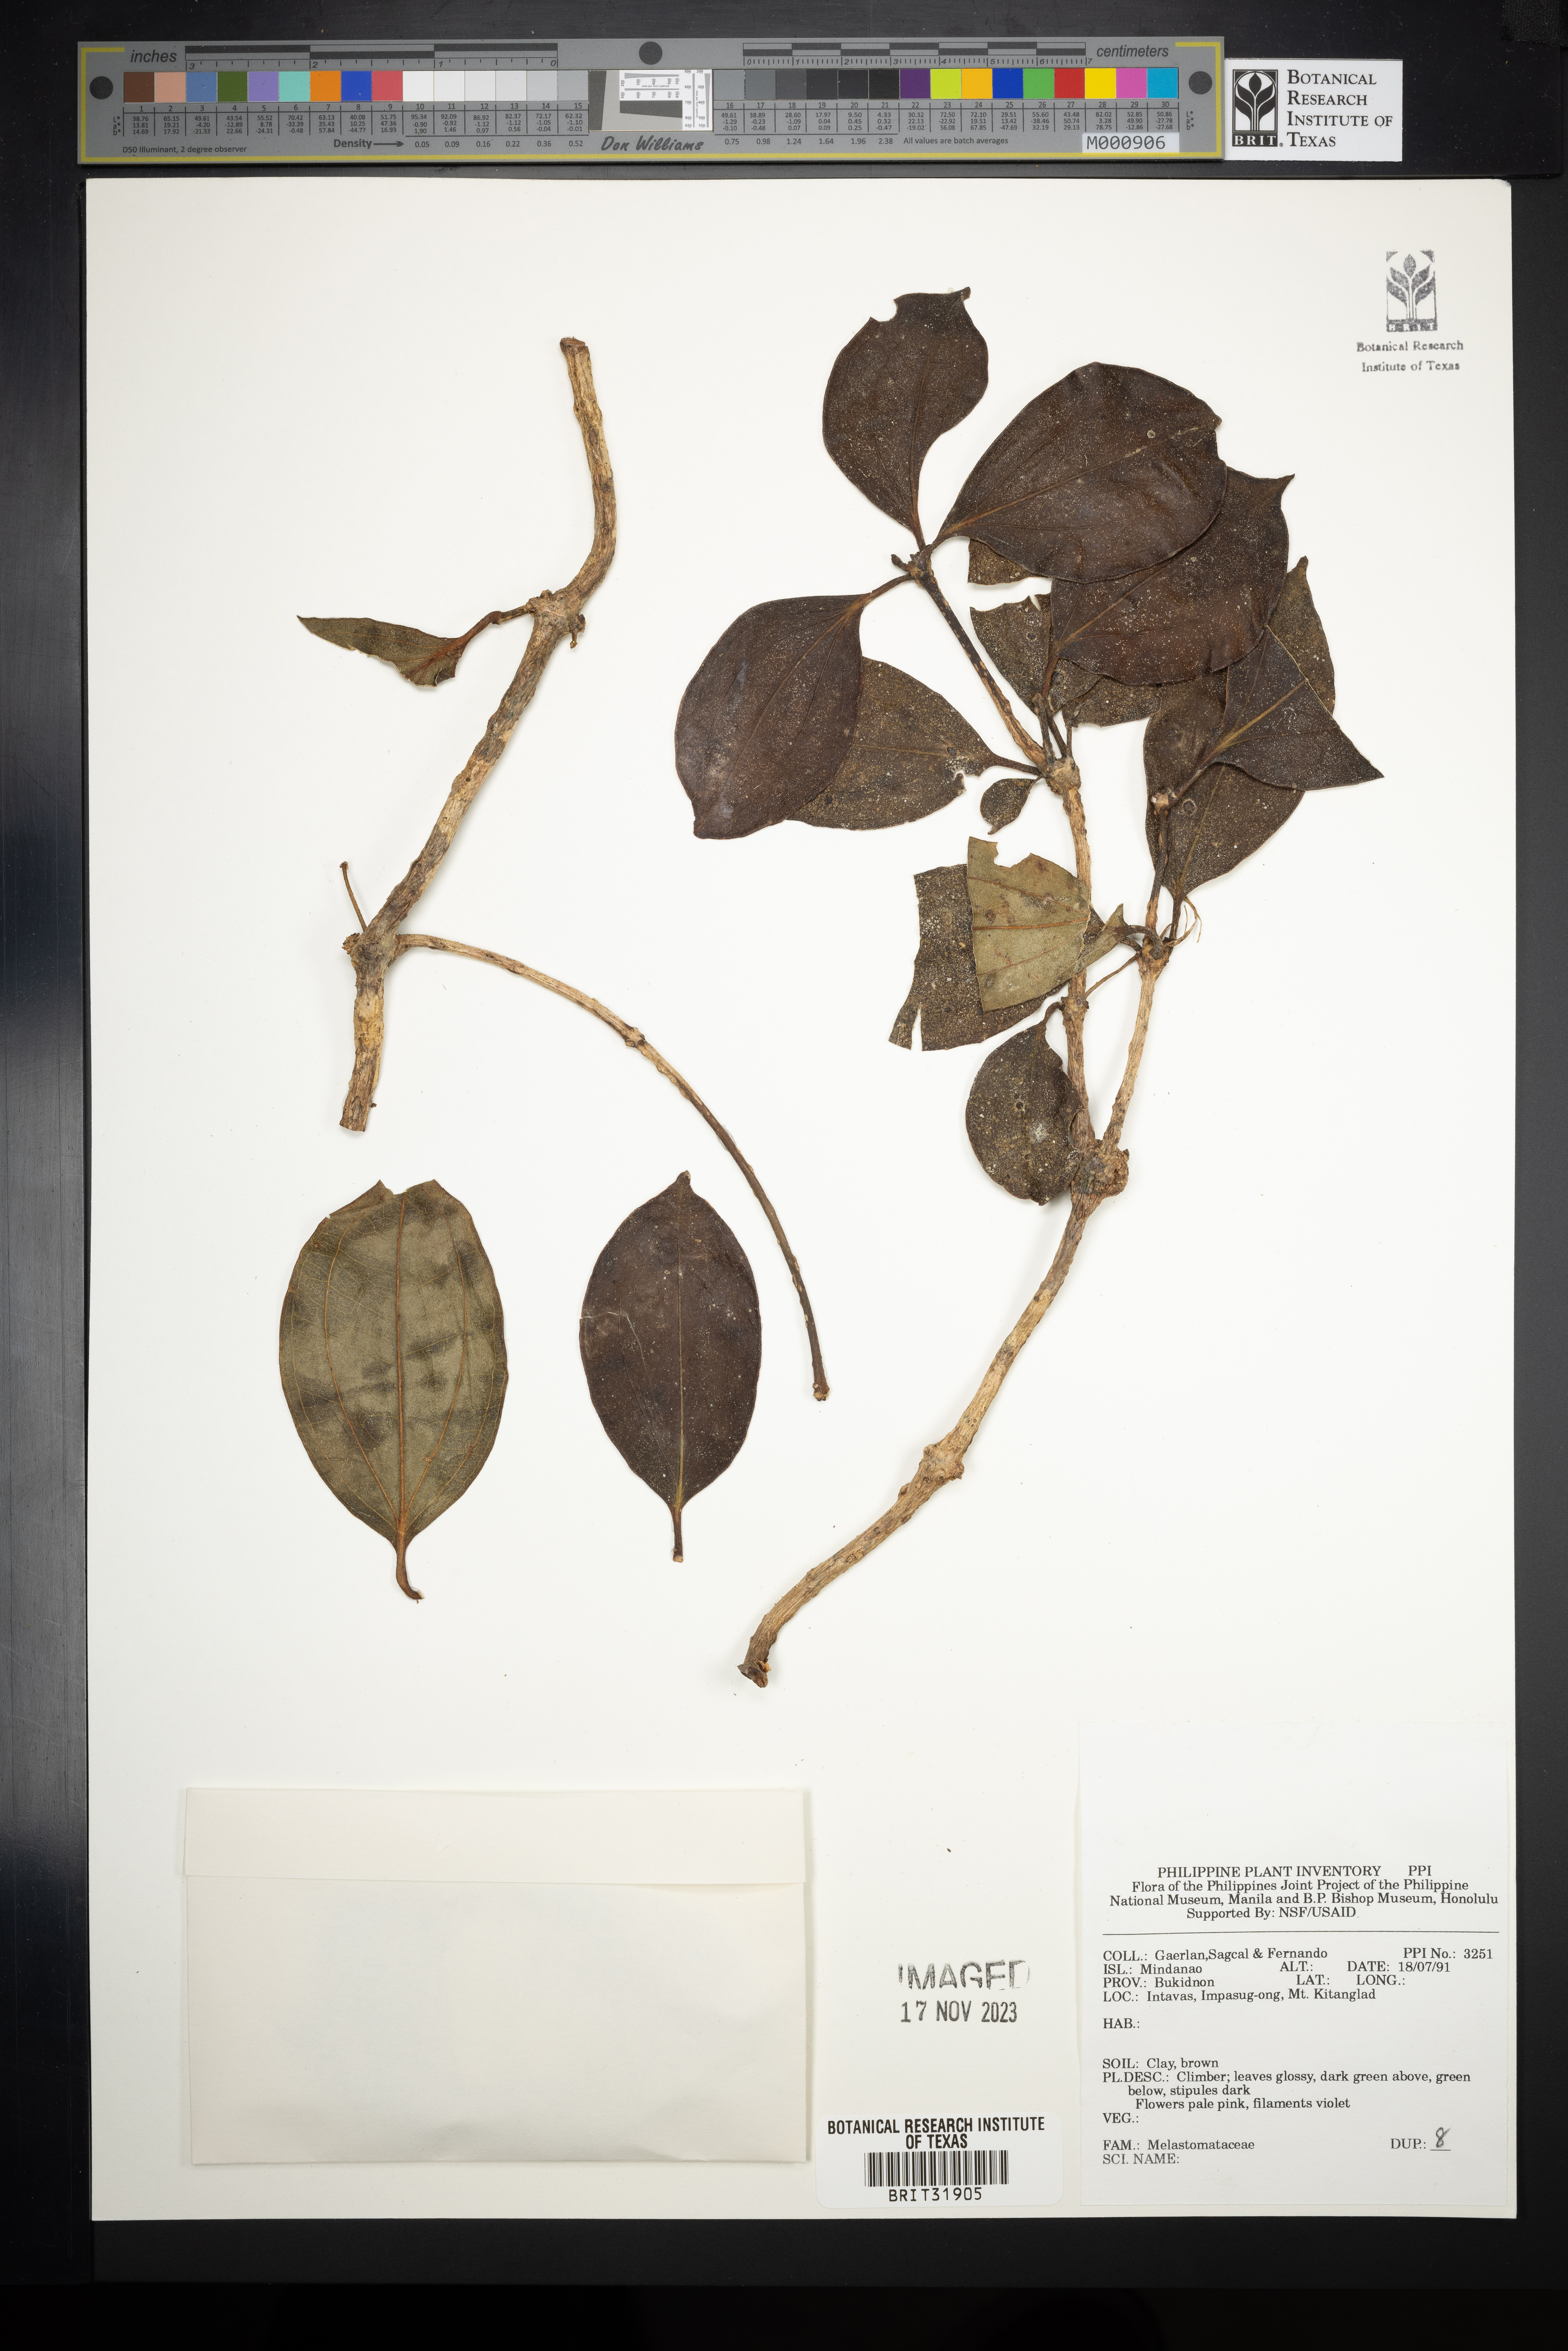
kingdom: Plantae
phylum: Tracheophyta
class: Magnoliopsida
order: Myrtales
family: Melastomataceae
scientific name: Melastomataceae
